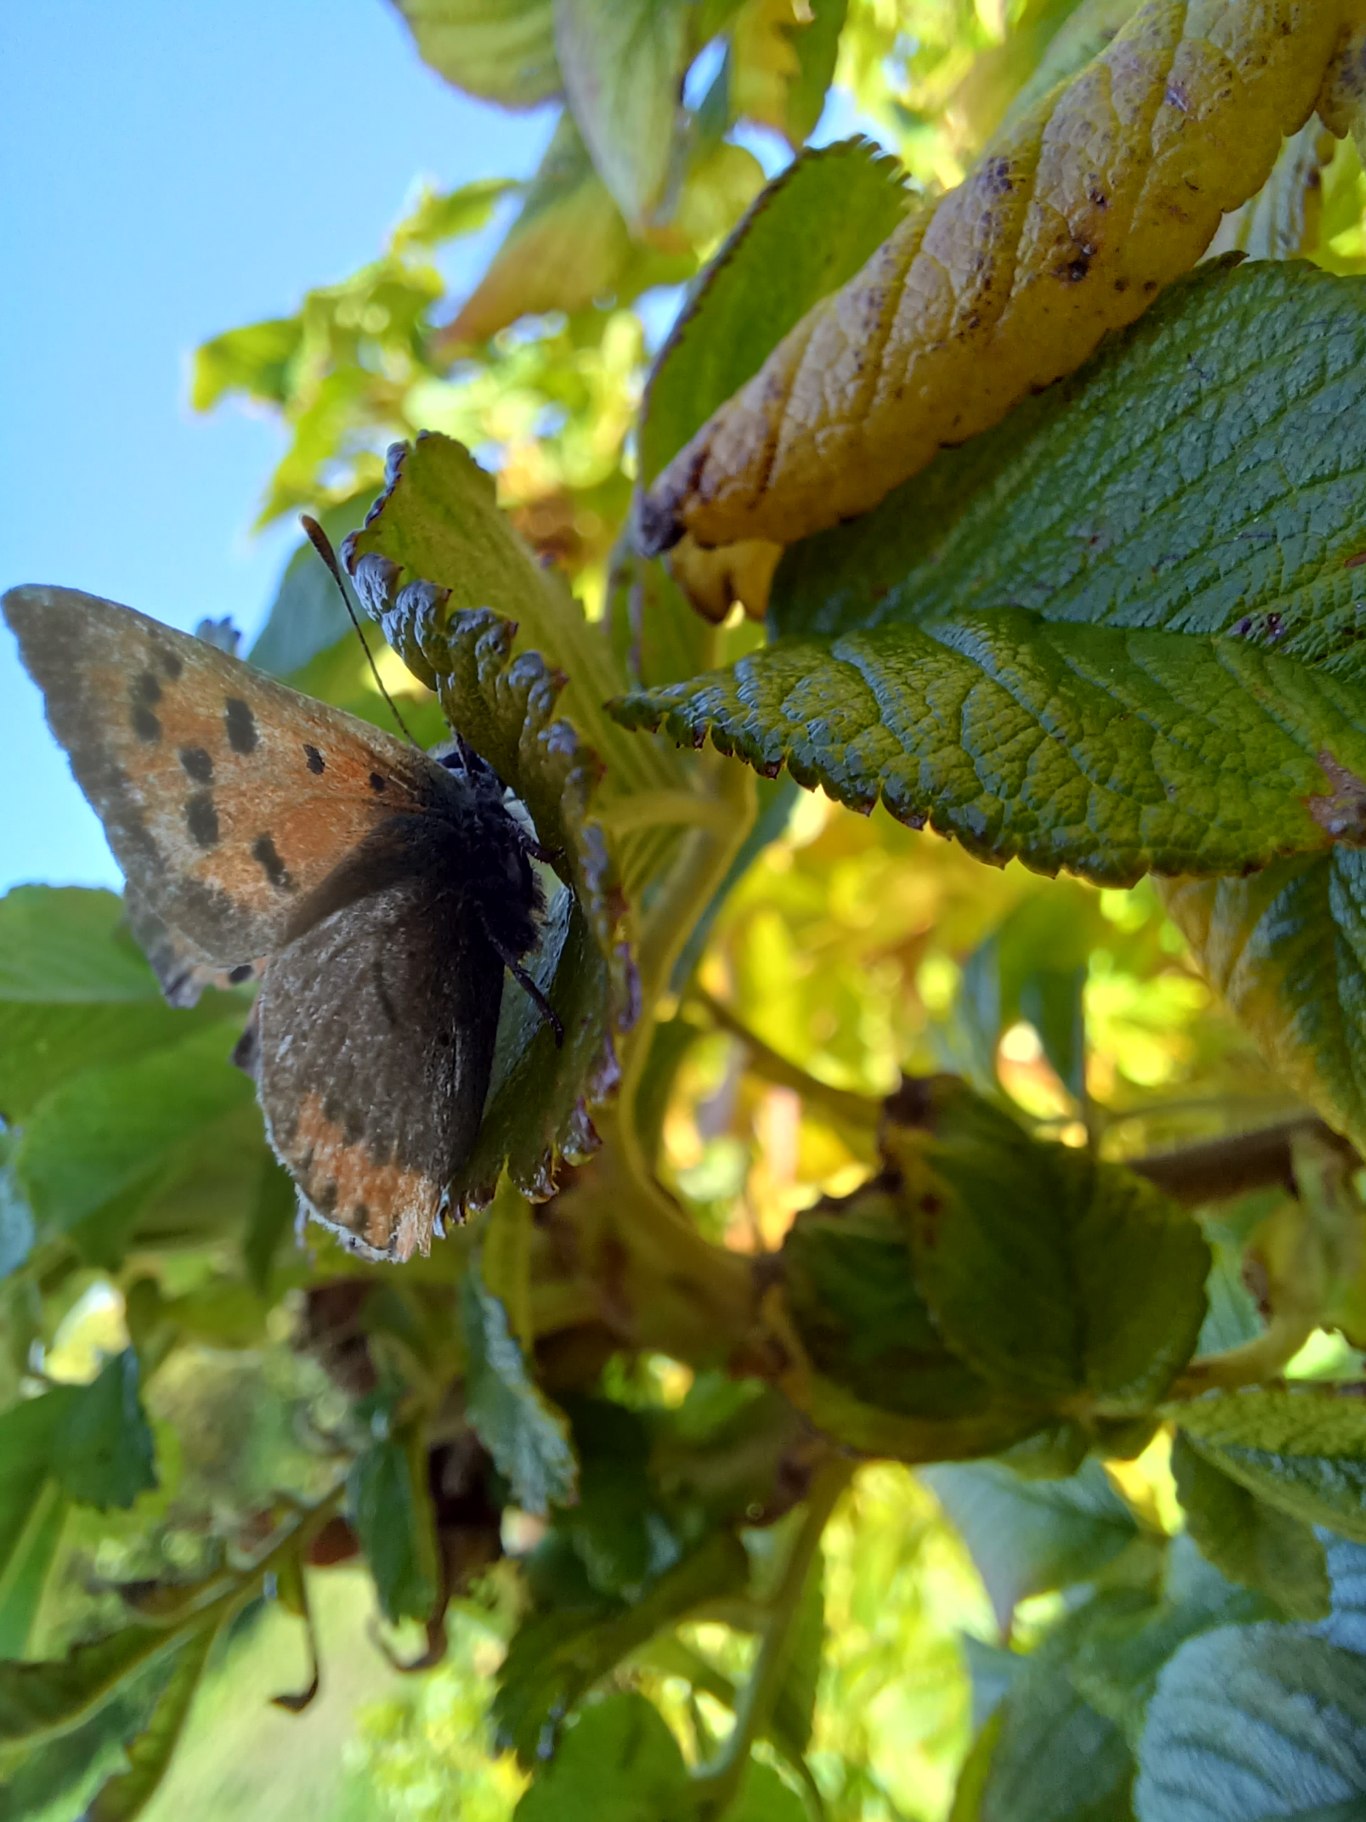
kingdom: Animalia
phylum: Arthropoda
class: Insecta
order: Lepidoptera
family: Lycaenidae
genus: Lycaena
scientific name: Lycaena phlaeas
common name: Lille ildfugl
